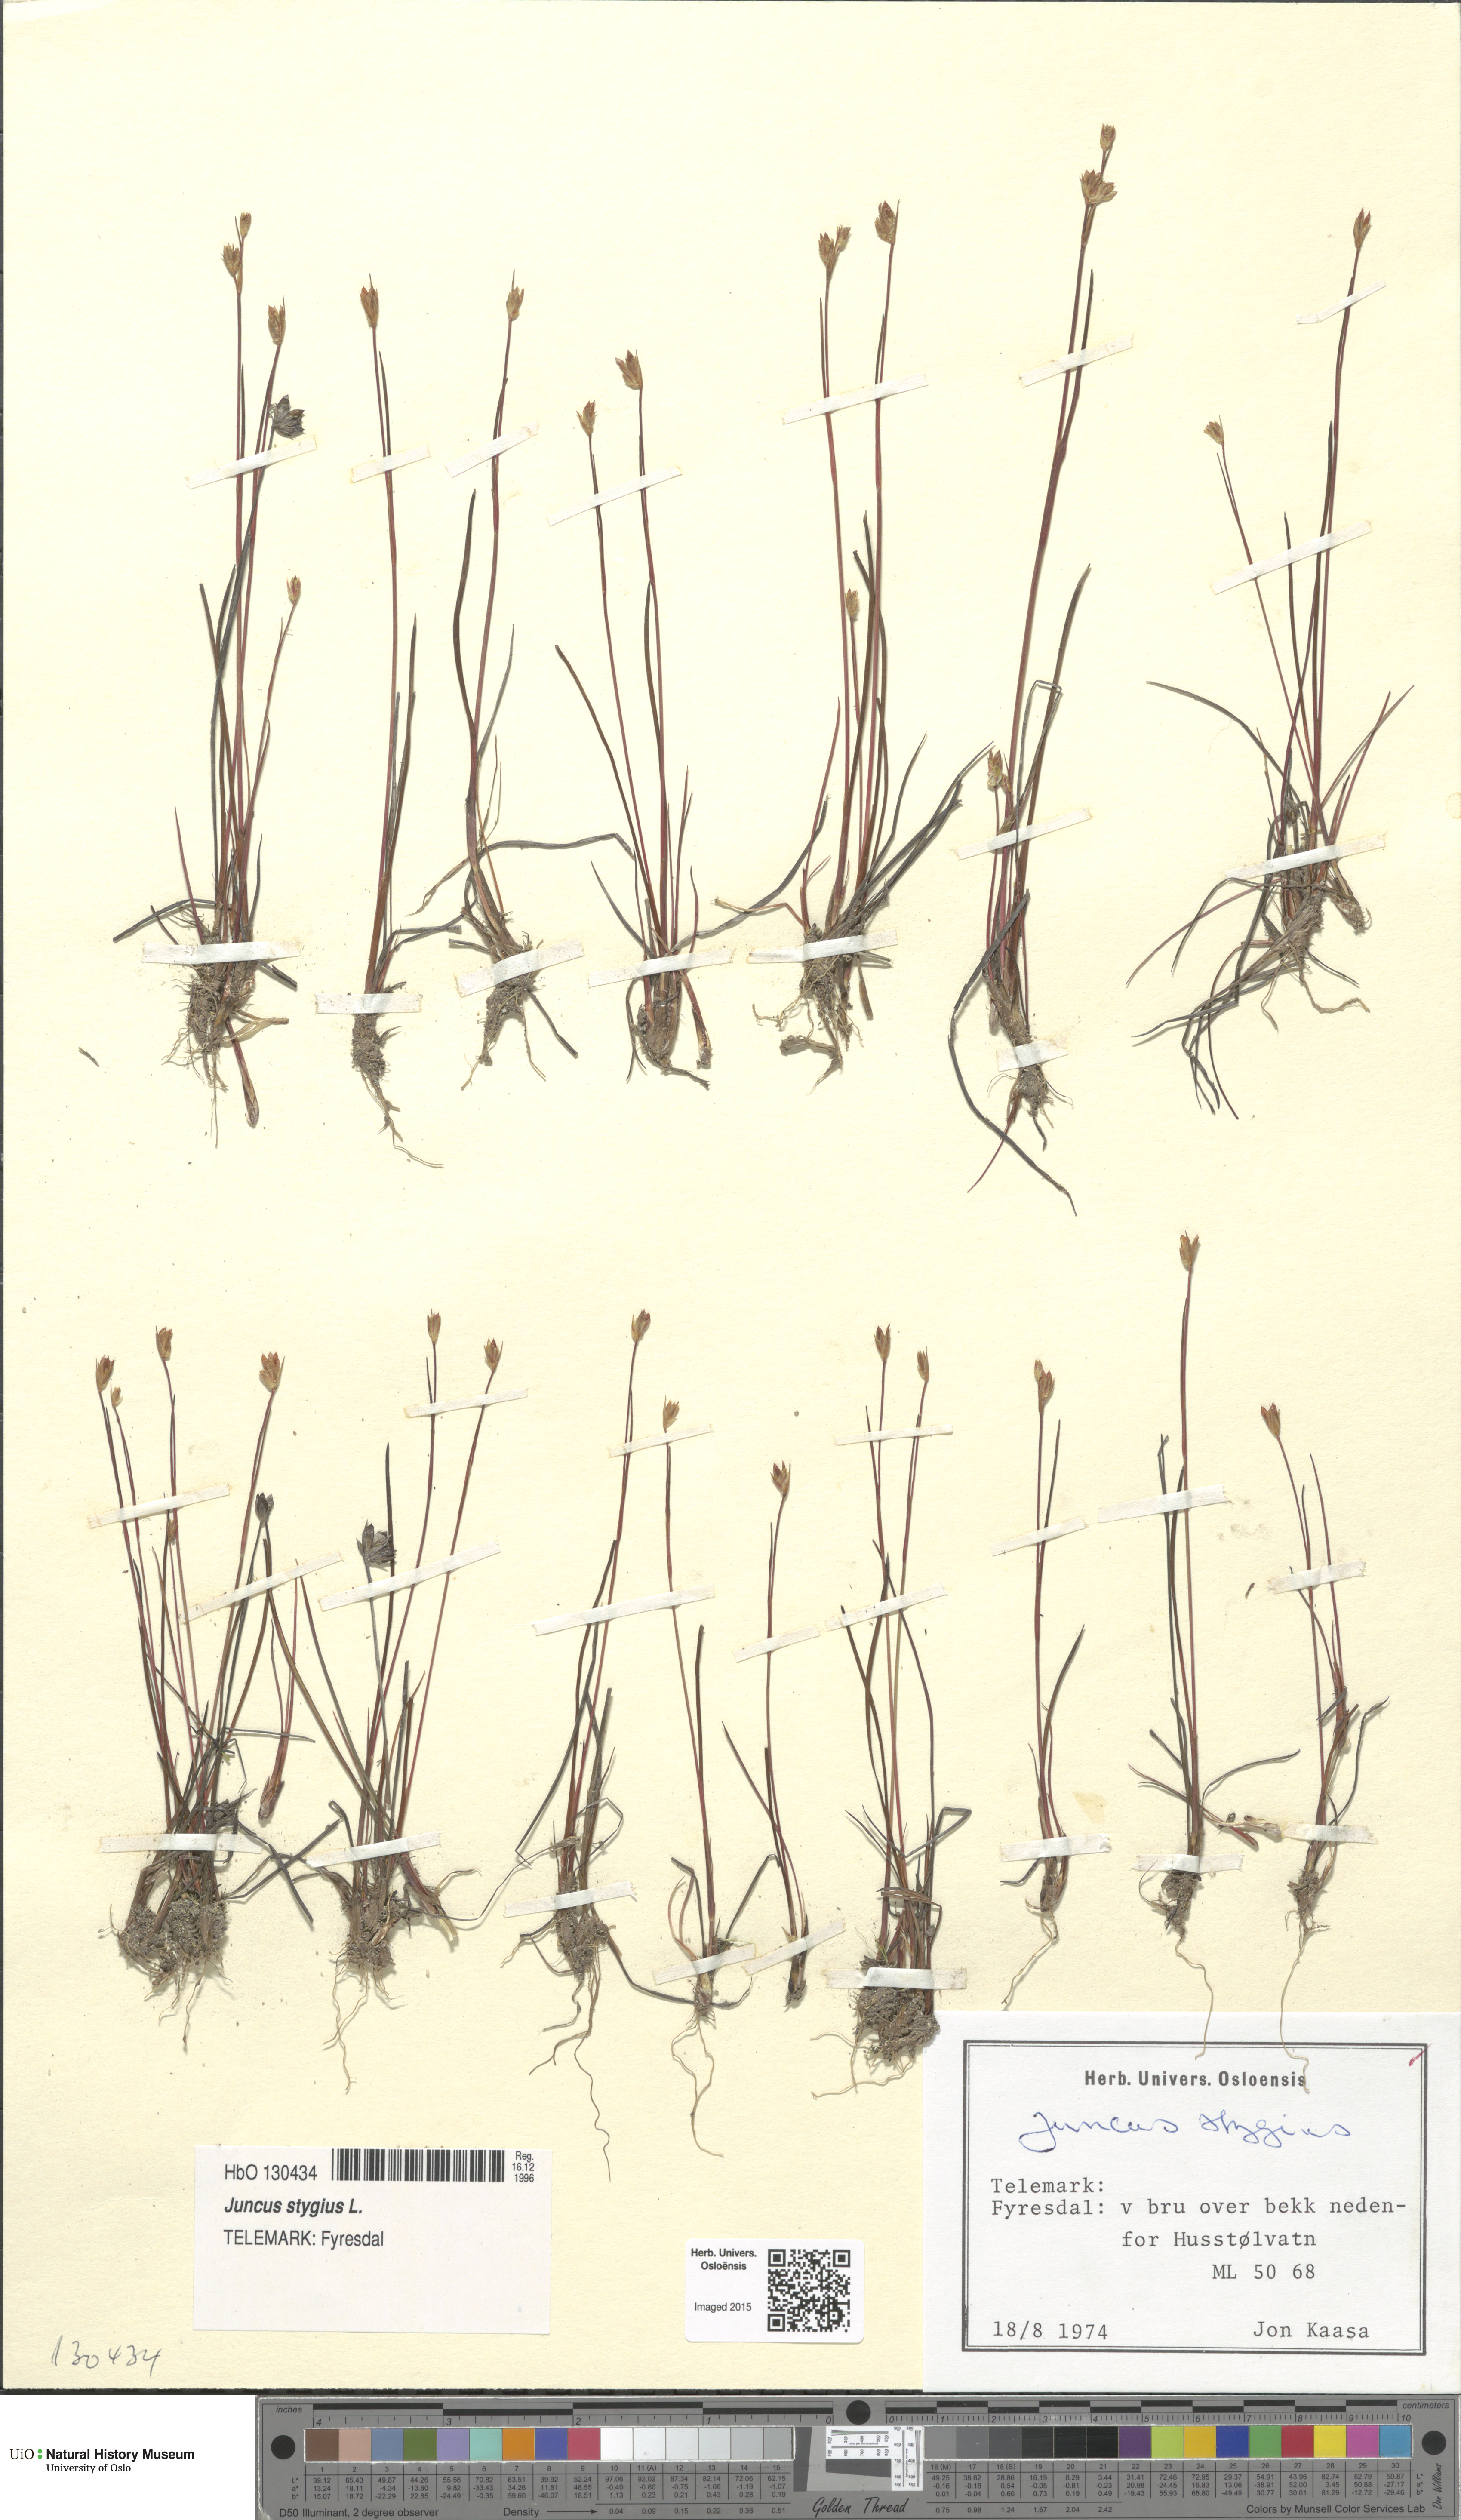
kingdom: Plantae
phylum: Tracheophyta
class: Liliopsida
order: Poales
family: Juncaceae
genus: Juncus
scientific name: Juncus stygius
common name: Bog rush
